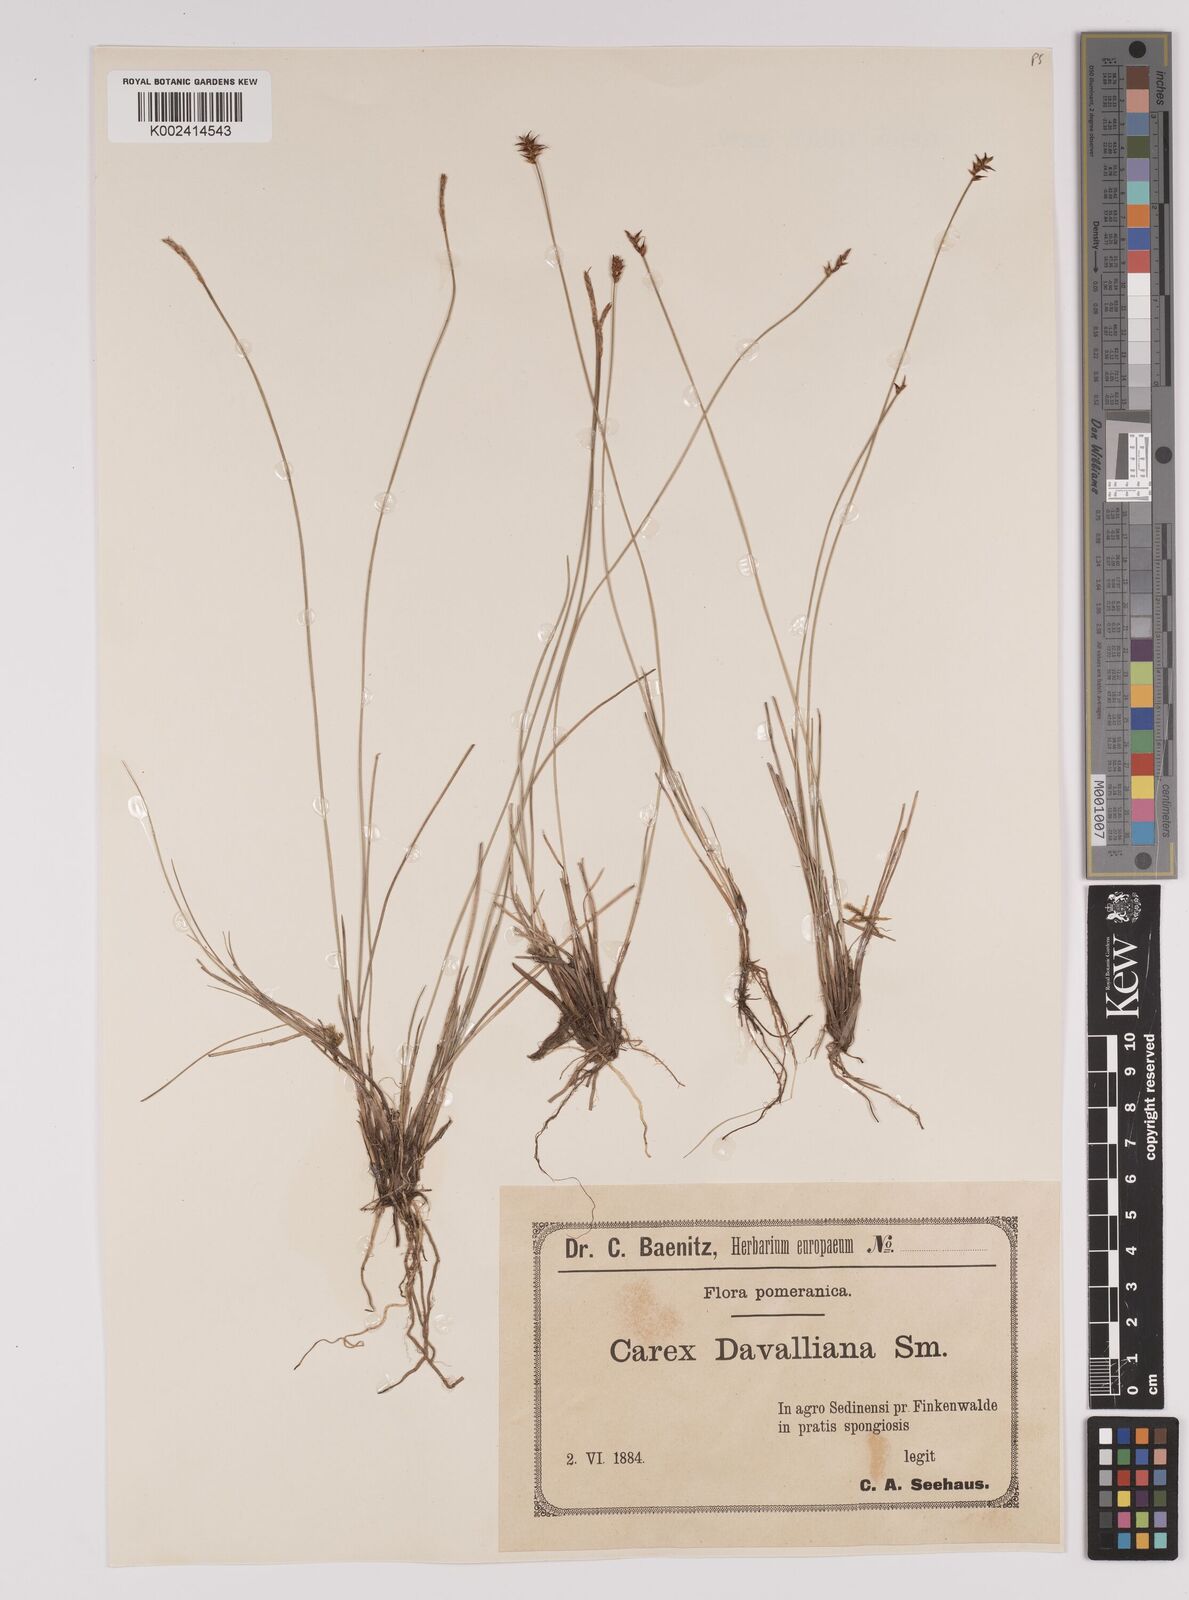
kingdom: Plantae
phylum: Tracheophyta
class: Liliopsida
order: Poales
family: Cyperaceae
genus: Carex
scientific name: Carex davalliana
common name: Davall's sedge
